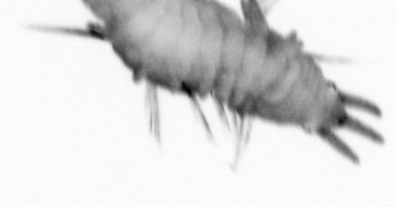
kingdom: Animalia
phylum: Annelida
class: Polychaeta
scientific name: Polychaeta
